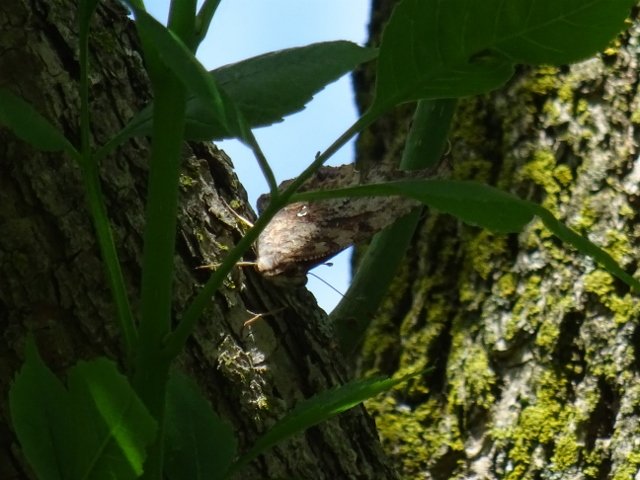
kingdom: Animalia
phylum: Arthropoda
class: Insecta
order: Lepidoptera
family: Nymphalidae
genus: Polygonia
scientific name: Polygonia
